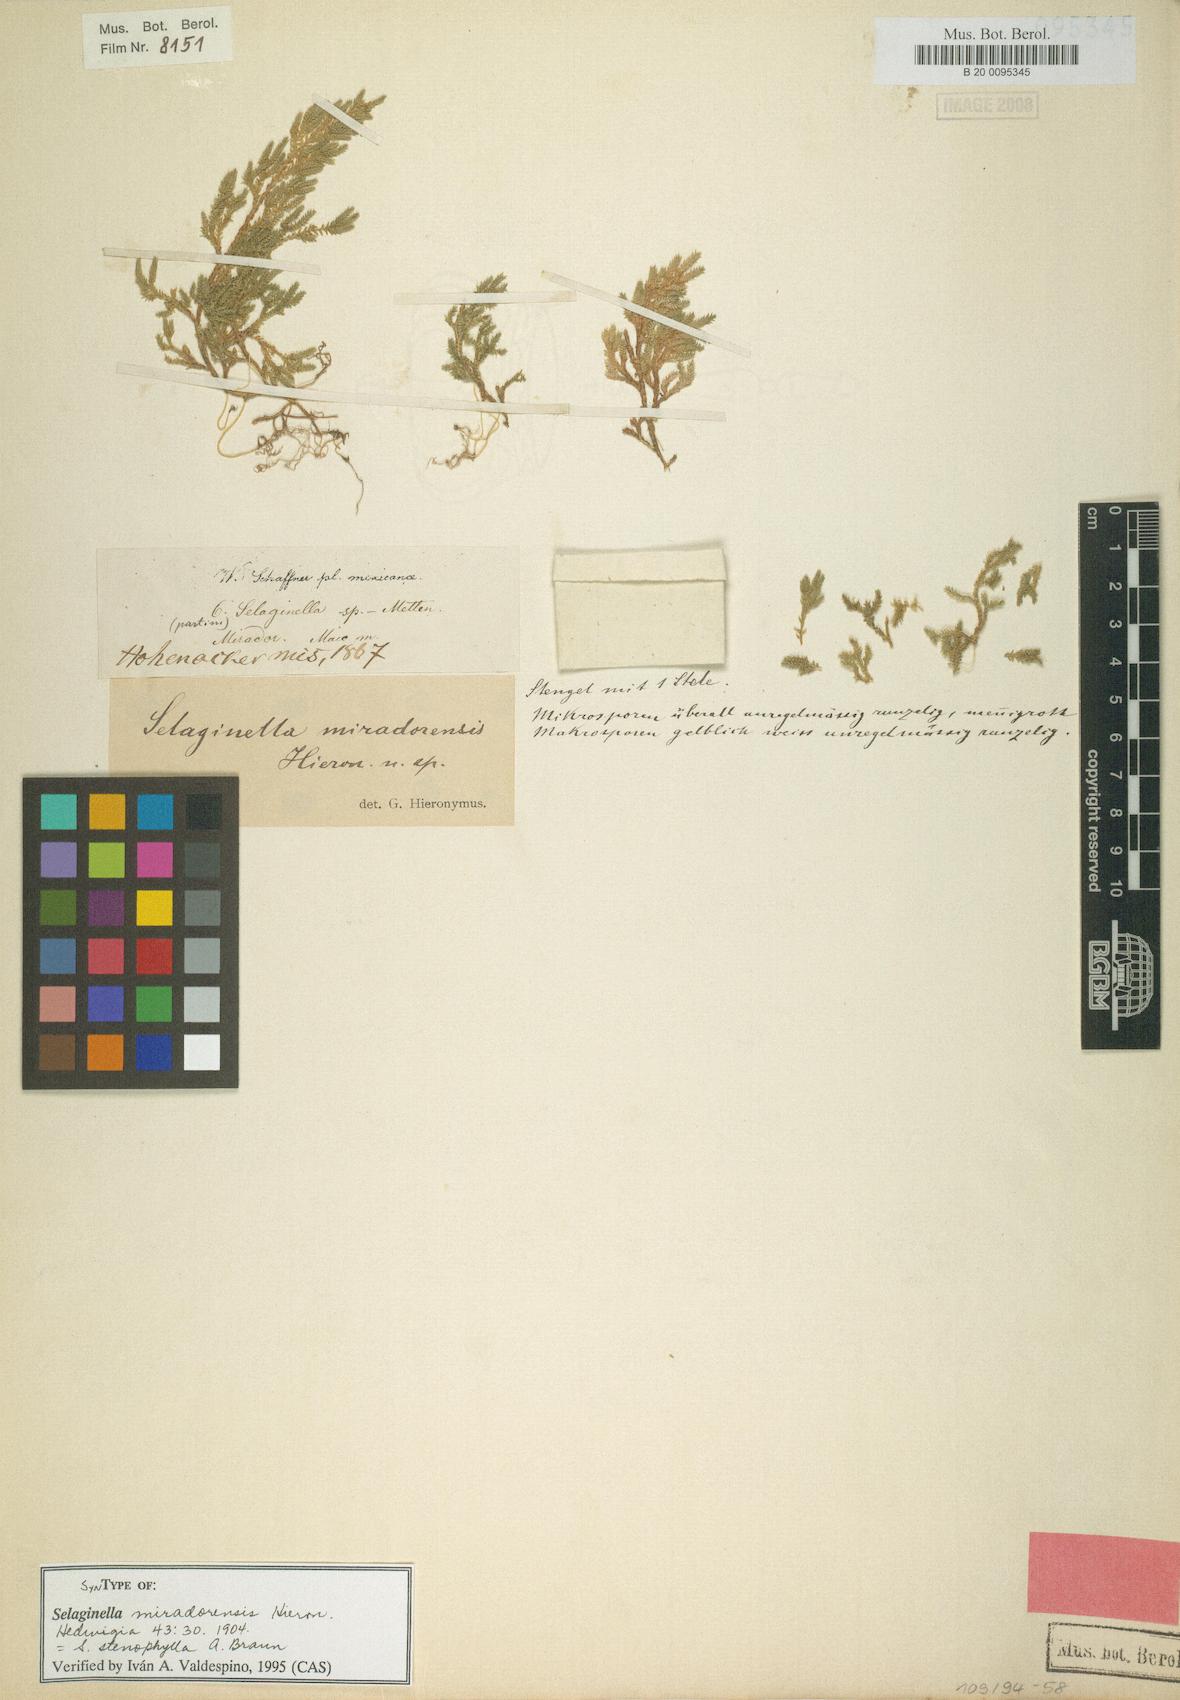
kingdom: Plantae
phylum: Tracheophyta
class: Lycopodiopsida
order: Selaginellales
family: Selaginellaceae
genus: Selaginella
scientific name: Selaginella stenophylla
